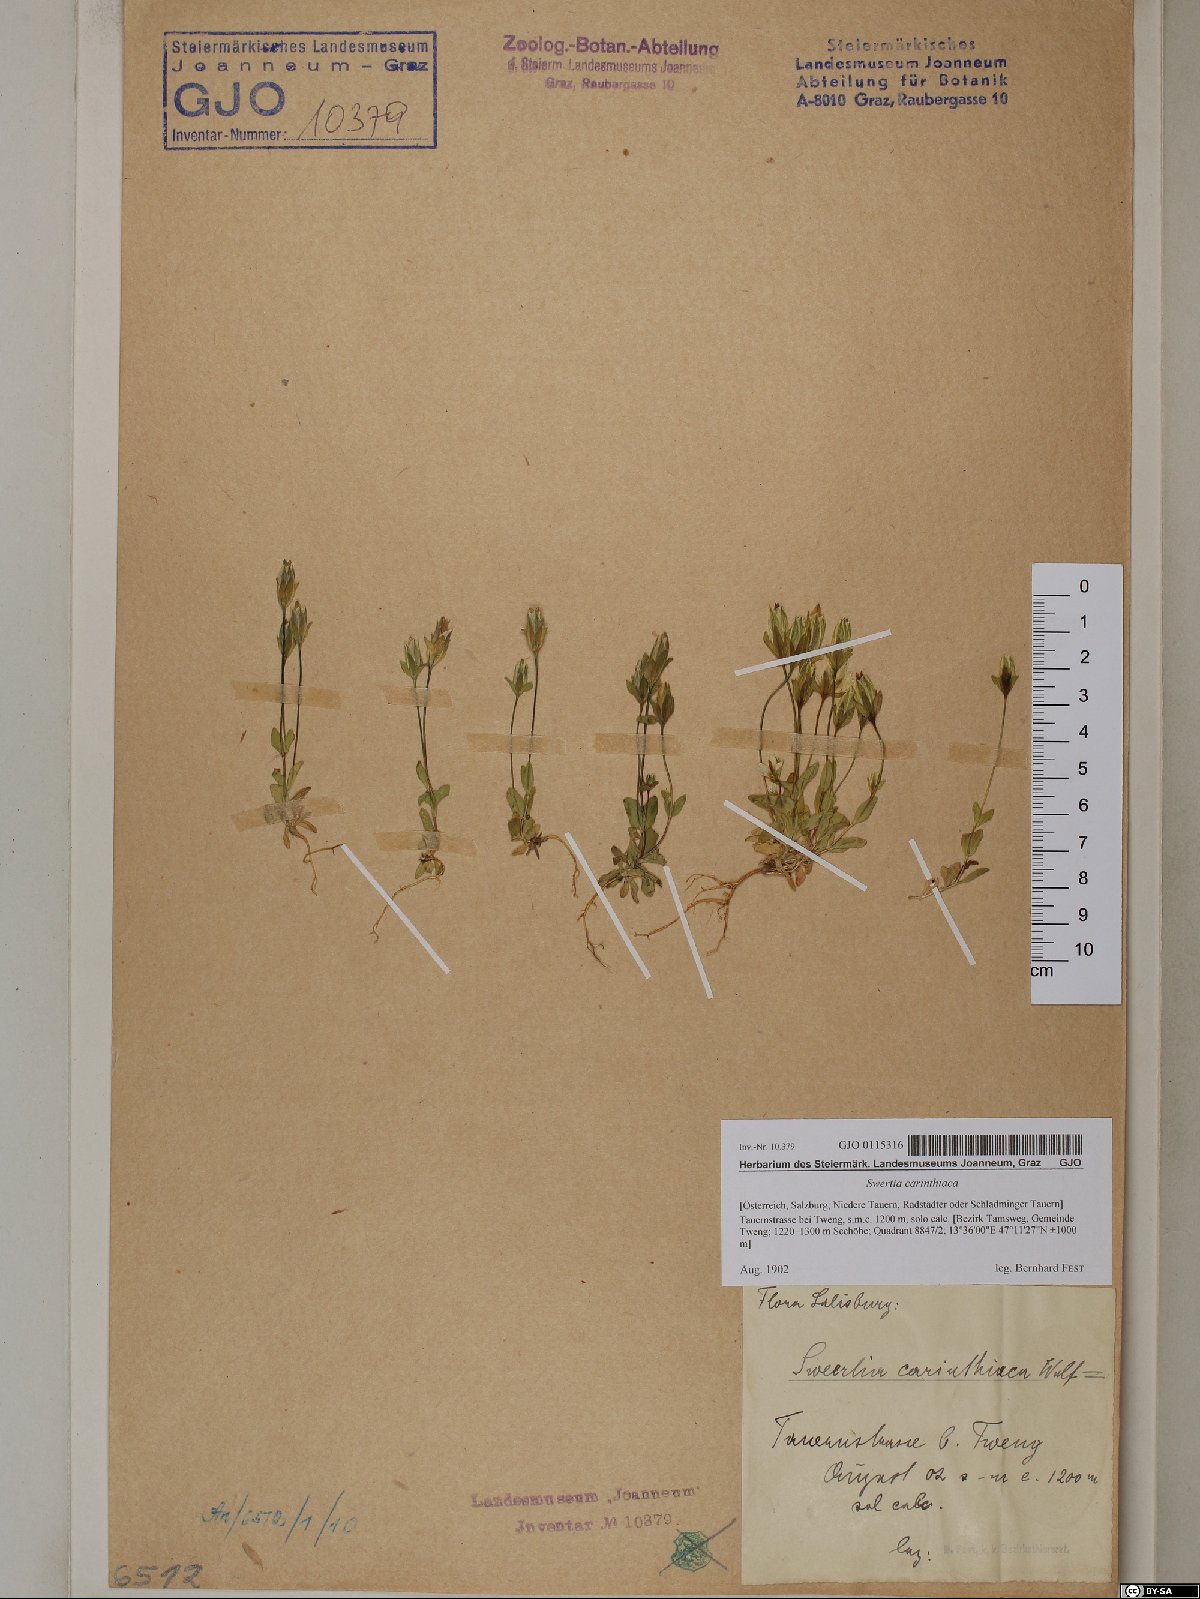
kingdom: Plantae
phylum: Tracheophyta
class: Magnoliopsida
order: Gentianales
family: Gentianaceae
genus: Lomatogonium
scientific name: Lomatogonium carinthiacum
